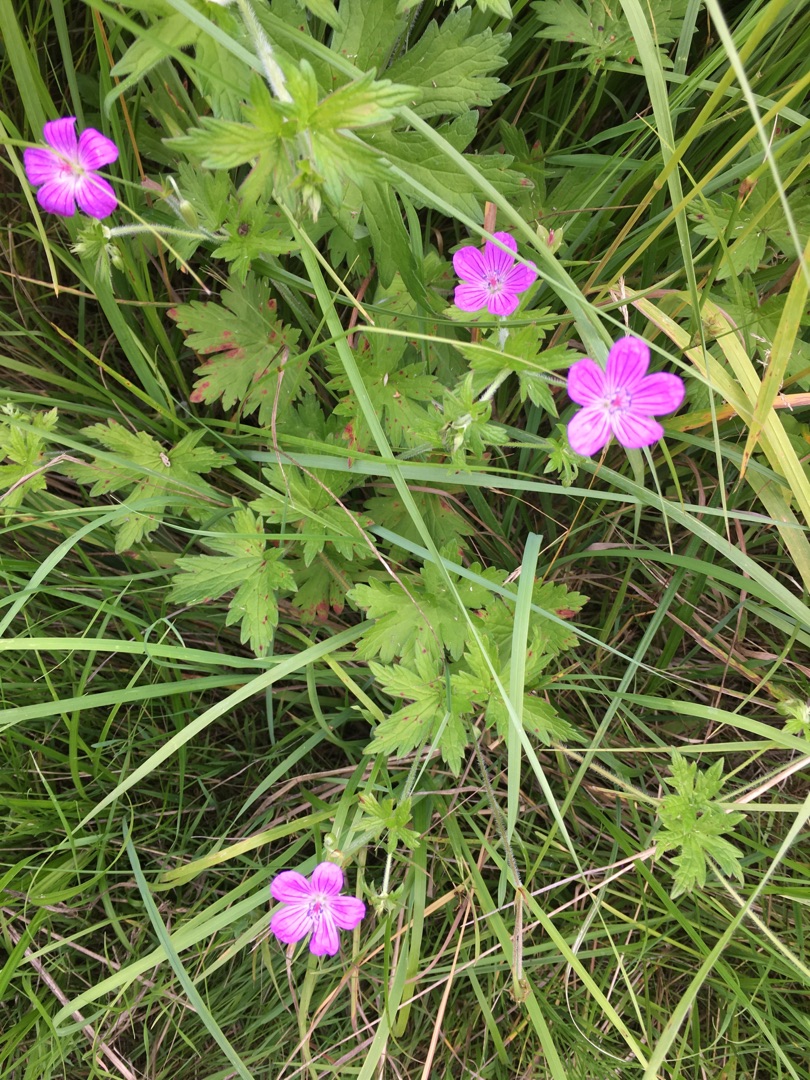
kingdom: Plantae
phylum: Tracheophyta
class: Magnoliopsida
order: Geraniales
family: Geraniaceae
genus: Geranium
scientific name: Geranium palustre
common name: Kær-storkenæb
